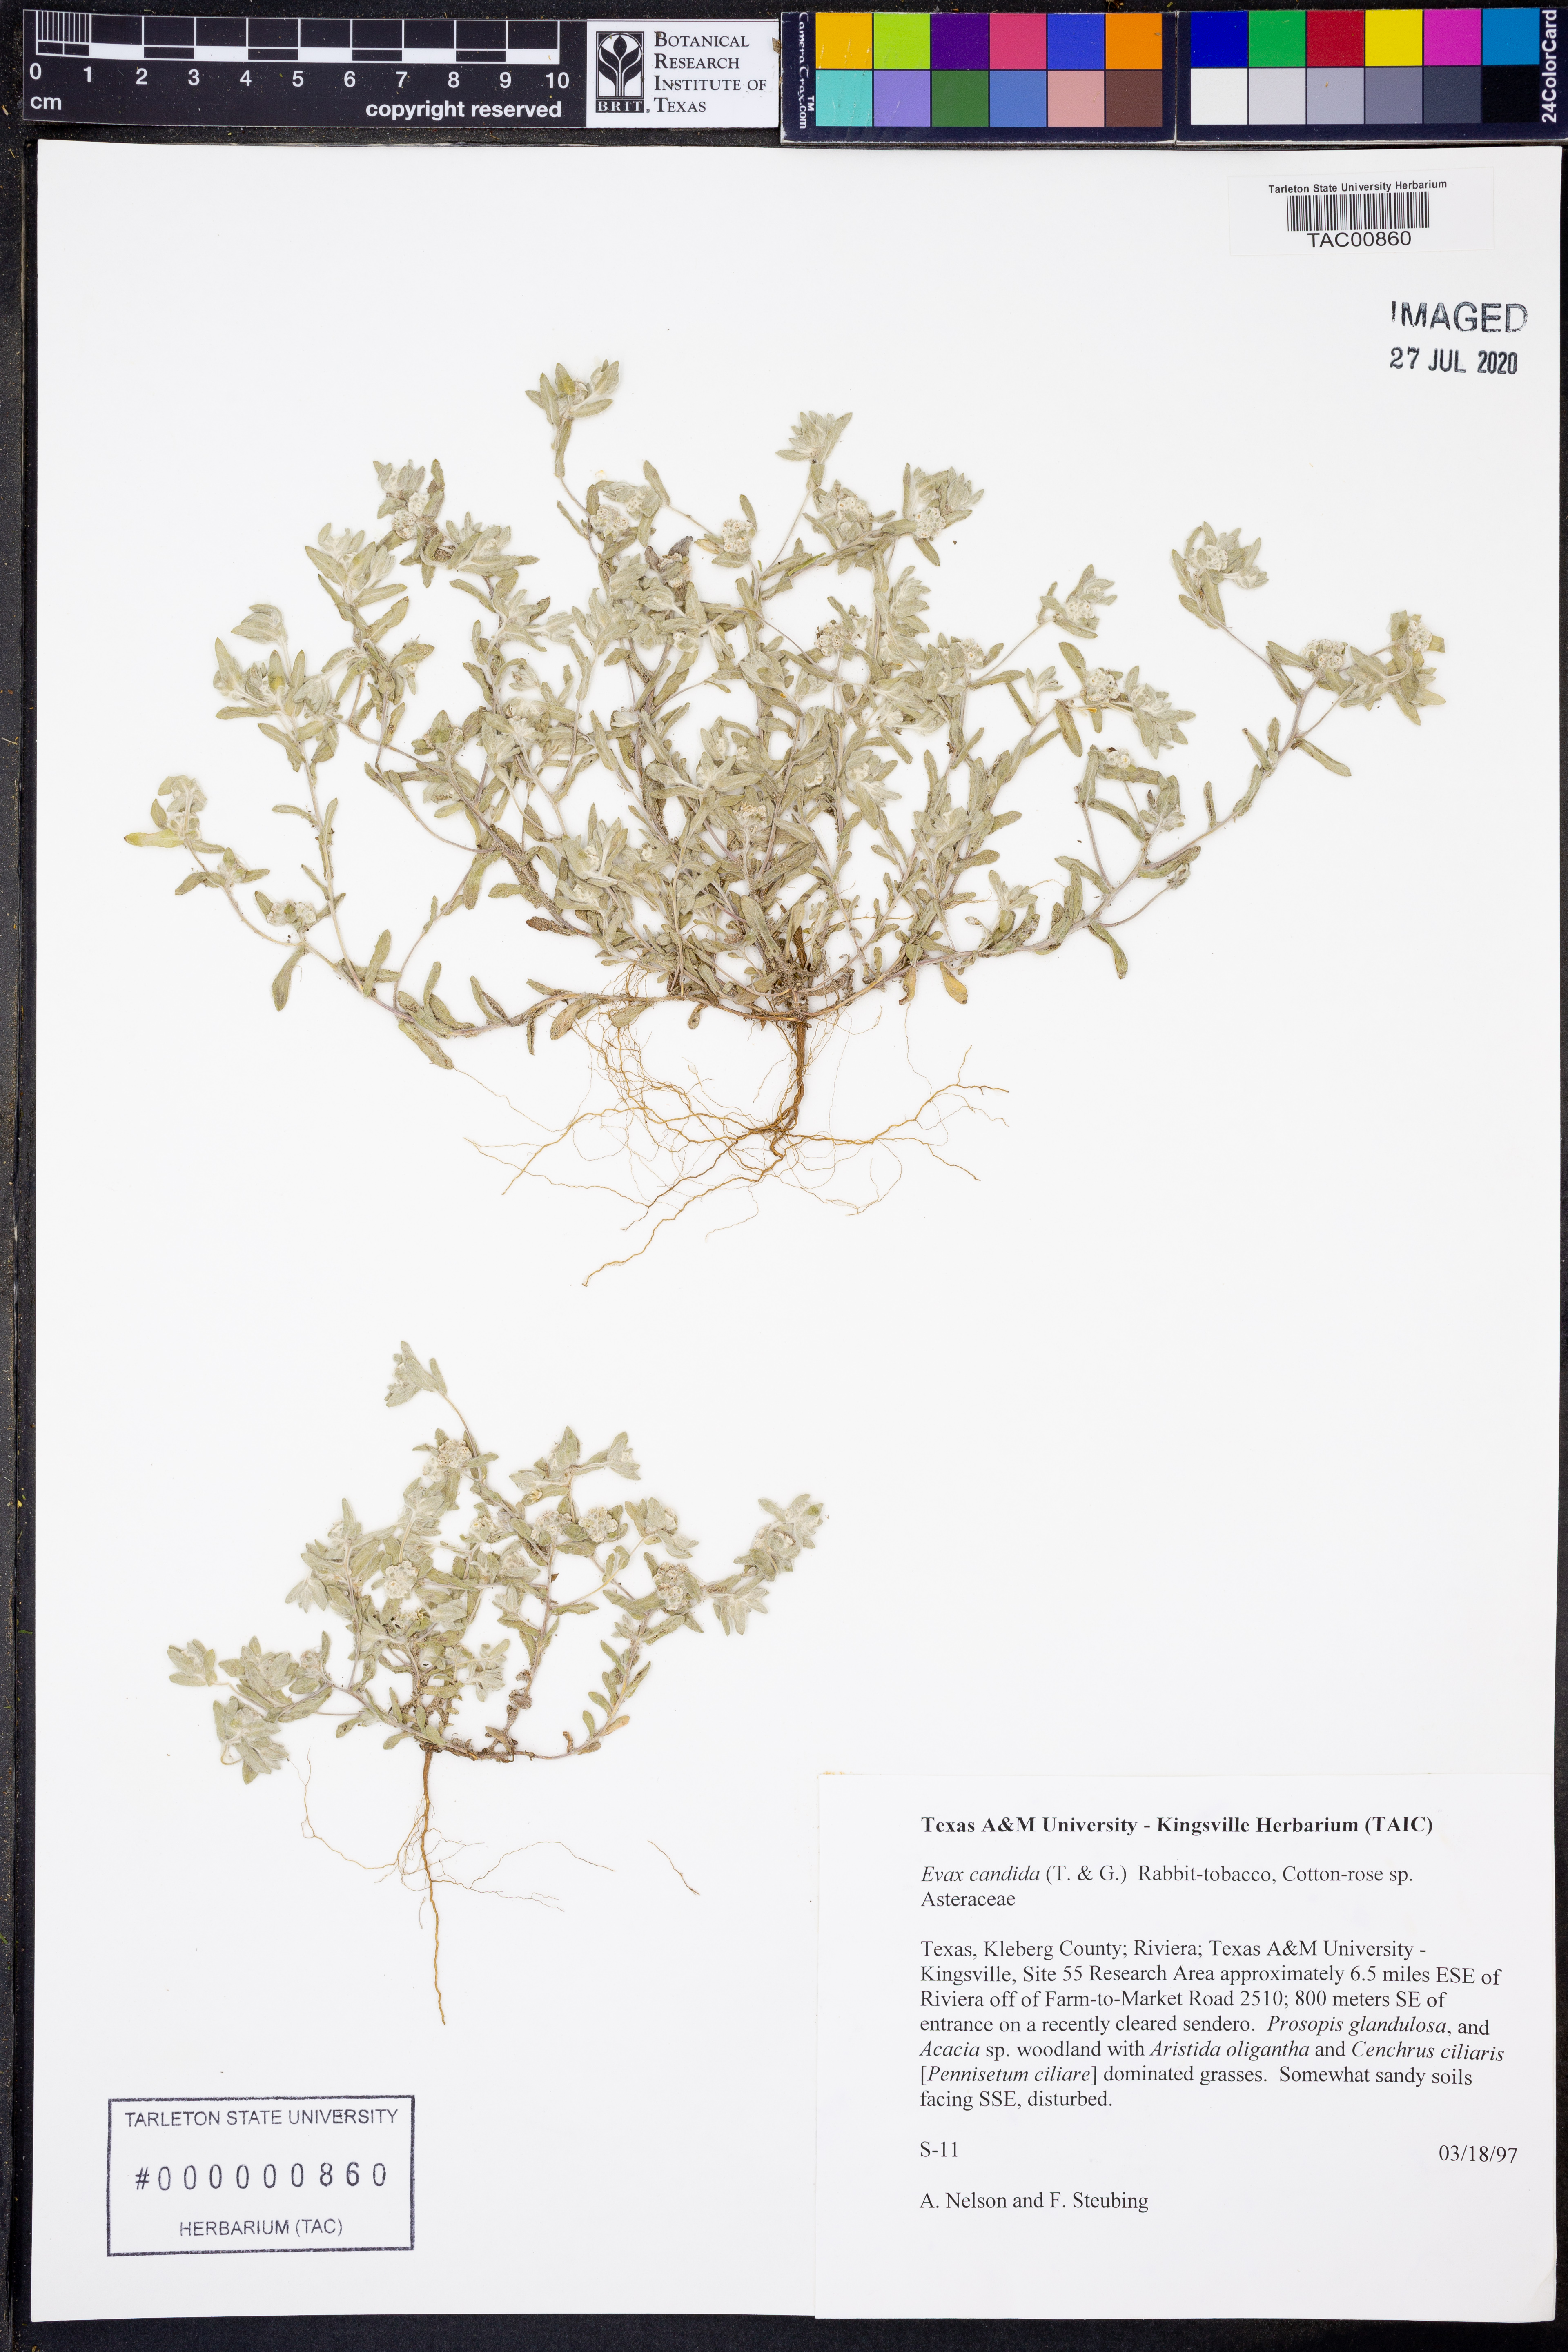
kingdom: Plantae
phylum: Tracheophyta
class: Magnoliopsida
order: Asterales
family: Asteraceae
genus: Diaperia
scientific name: Diaperia candida
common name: Silver rabbit-tobacco
